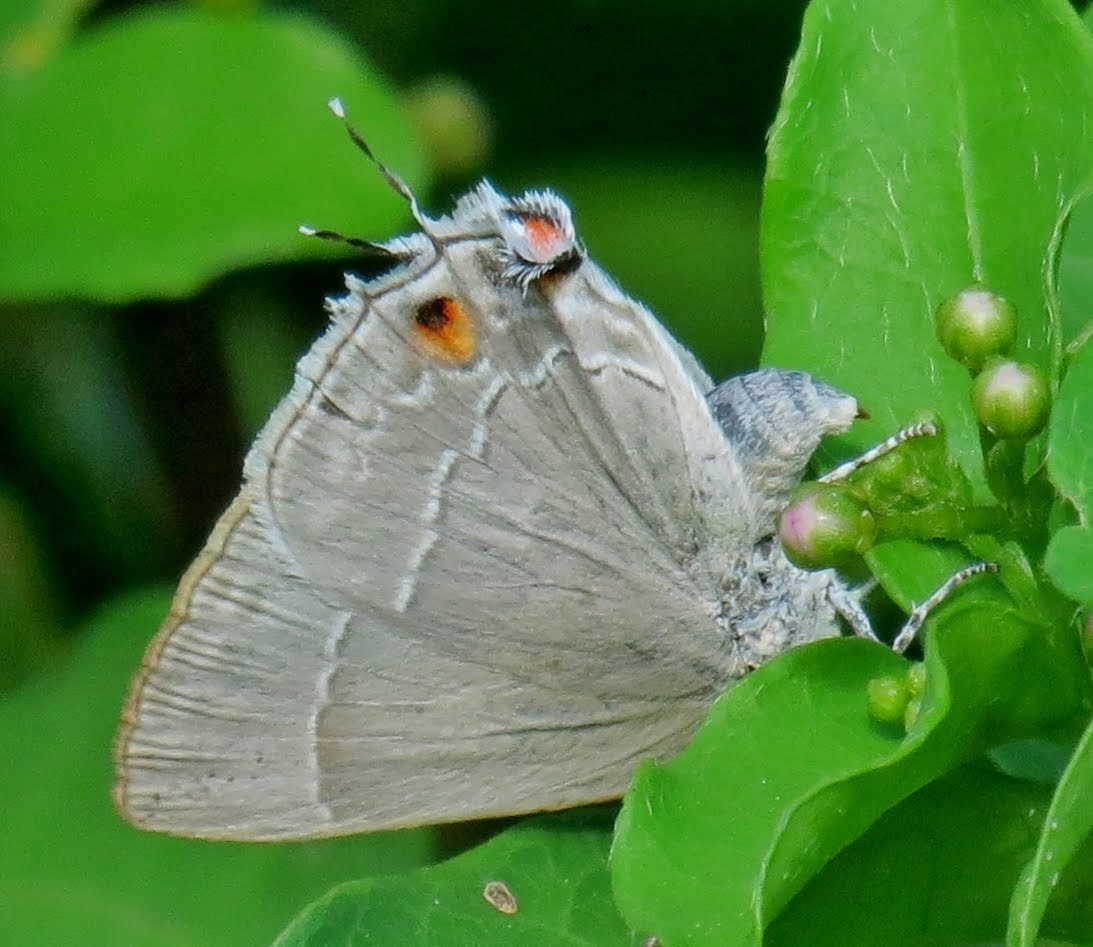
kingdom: Animalia
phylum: Arthropoda
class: Insecta
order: Lepidoptera
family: Lycaenidae
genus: Thecla
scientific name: Thecla marius
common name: Marius Hairstreak
